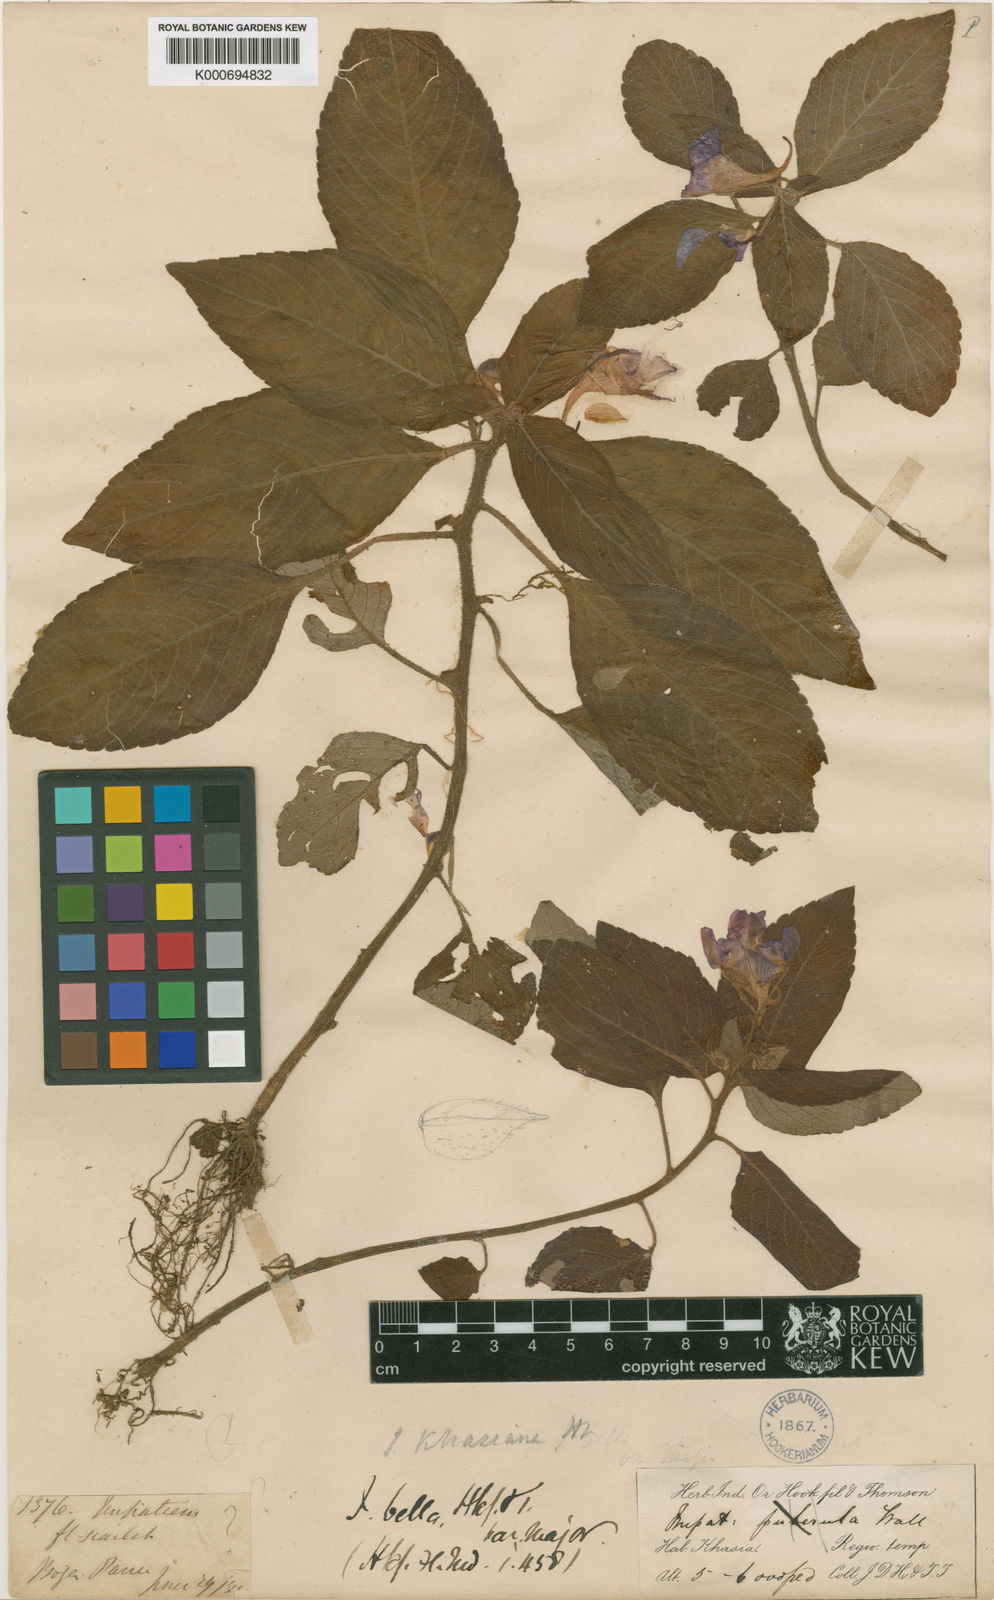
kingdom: Plantae
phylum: Tracheophyta
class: Magnoliopsida
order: Ericales
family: Balsaminaceae
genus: Impatiens
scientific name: Impatiens khasiana
